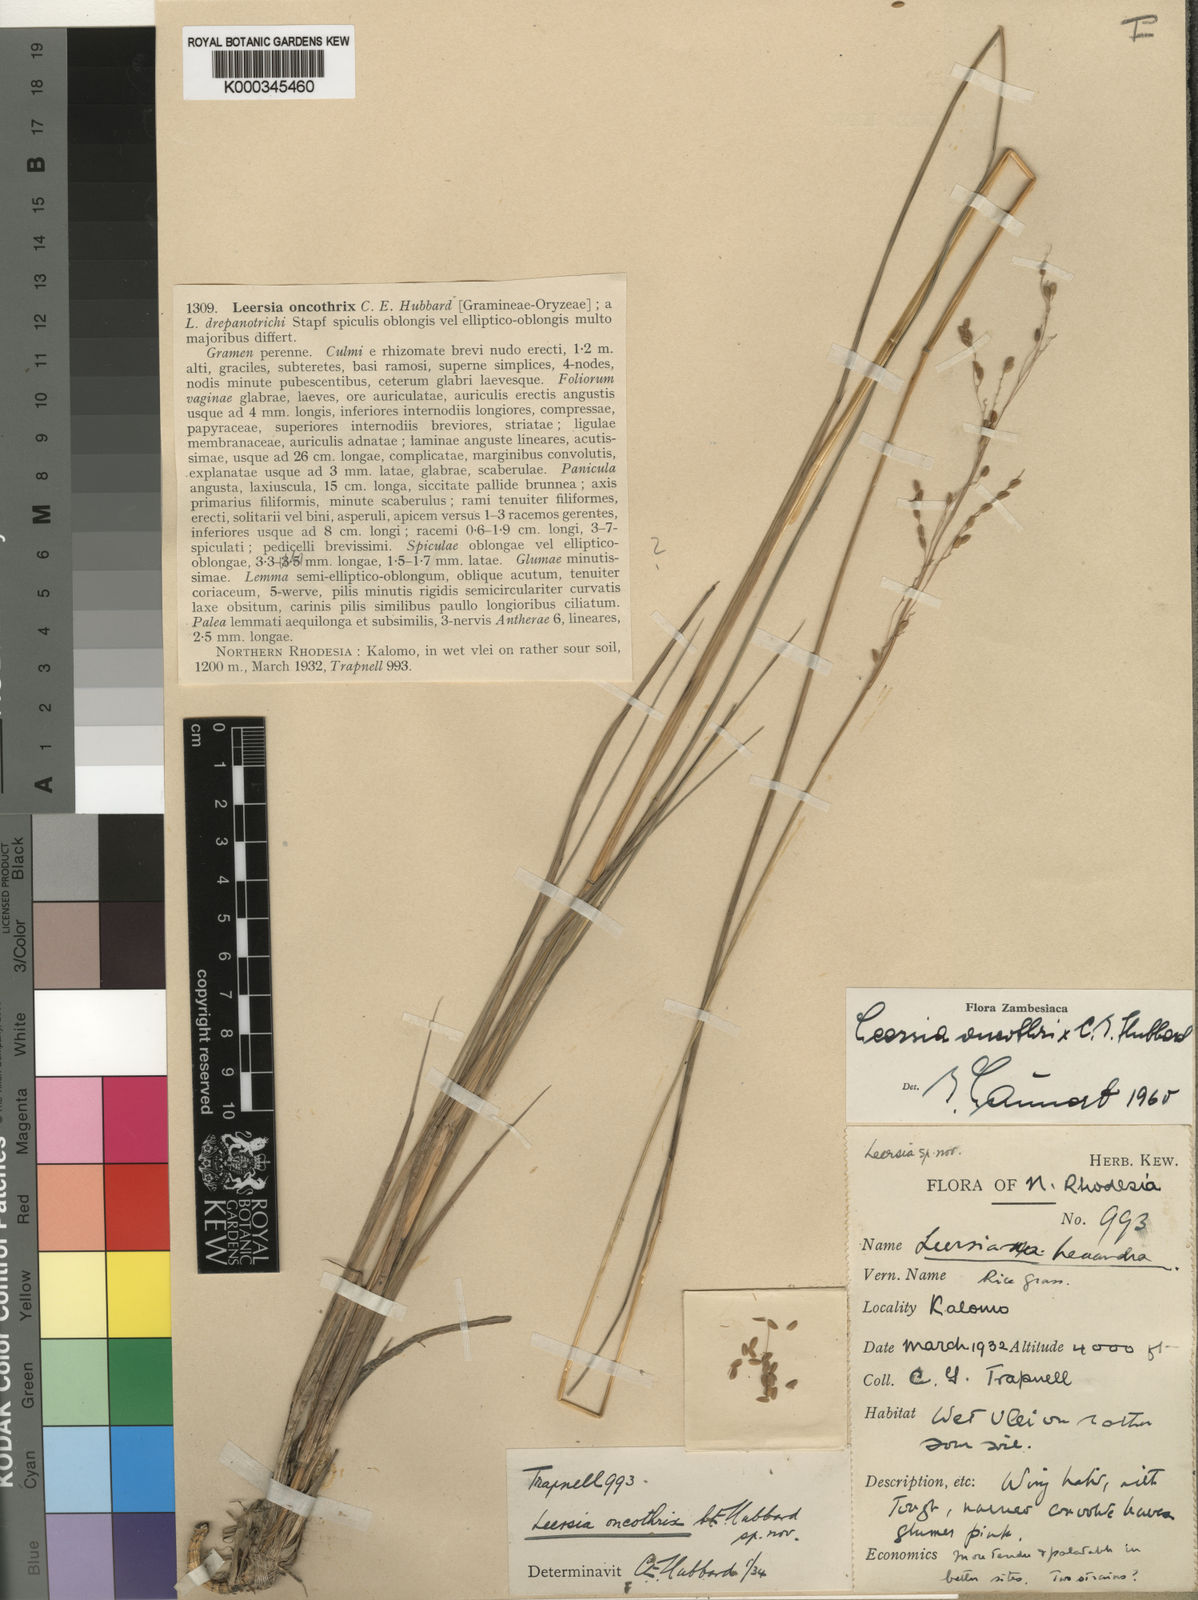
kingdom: Plantae
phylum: Tracheophyta
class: Liliopsida
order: Poales
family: Poaceae
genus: Leersia
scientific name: Leersia oncothrix
